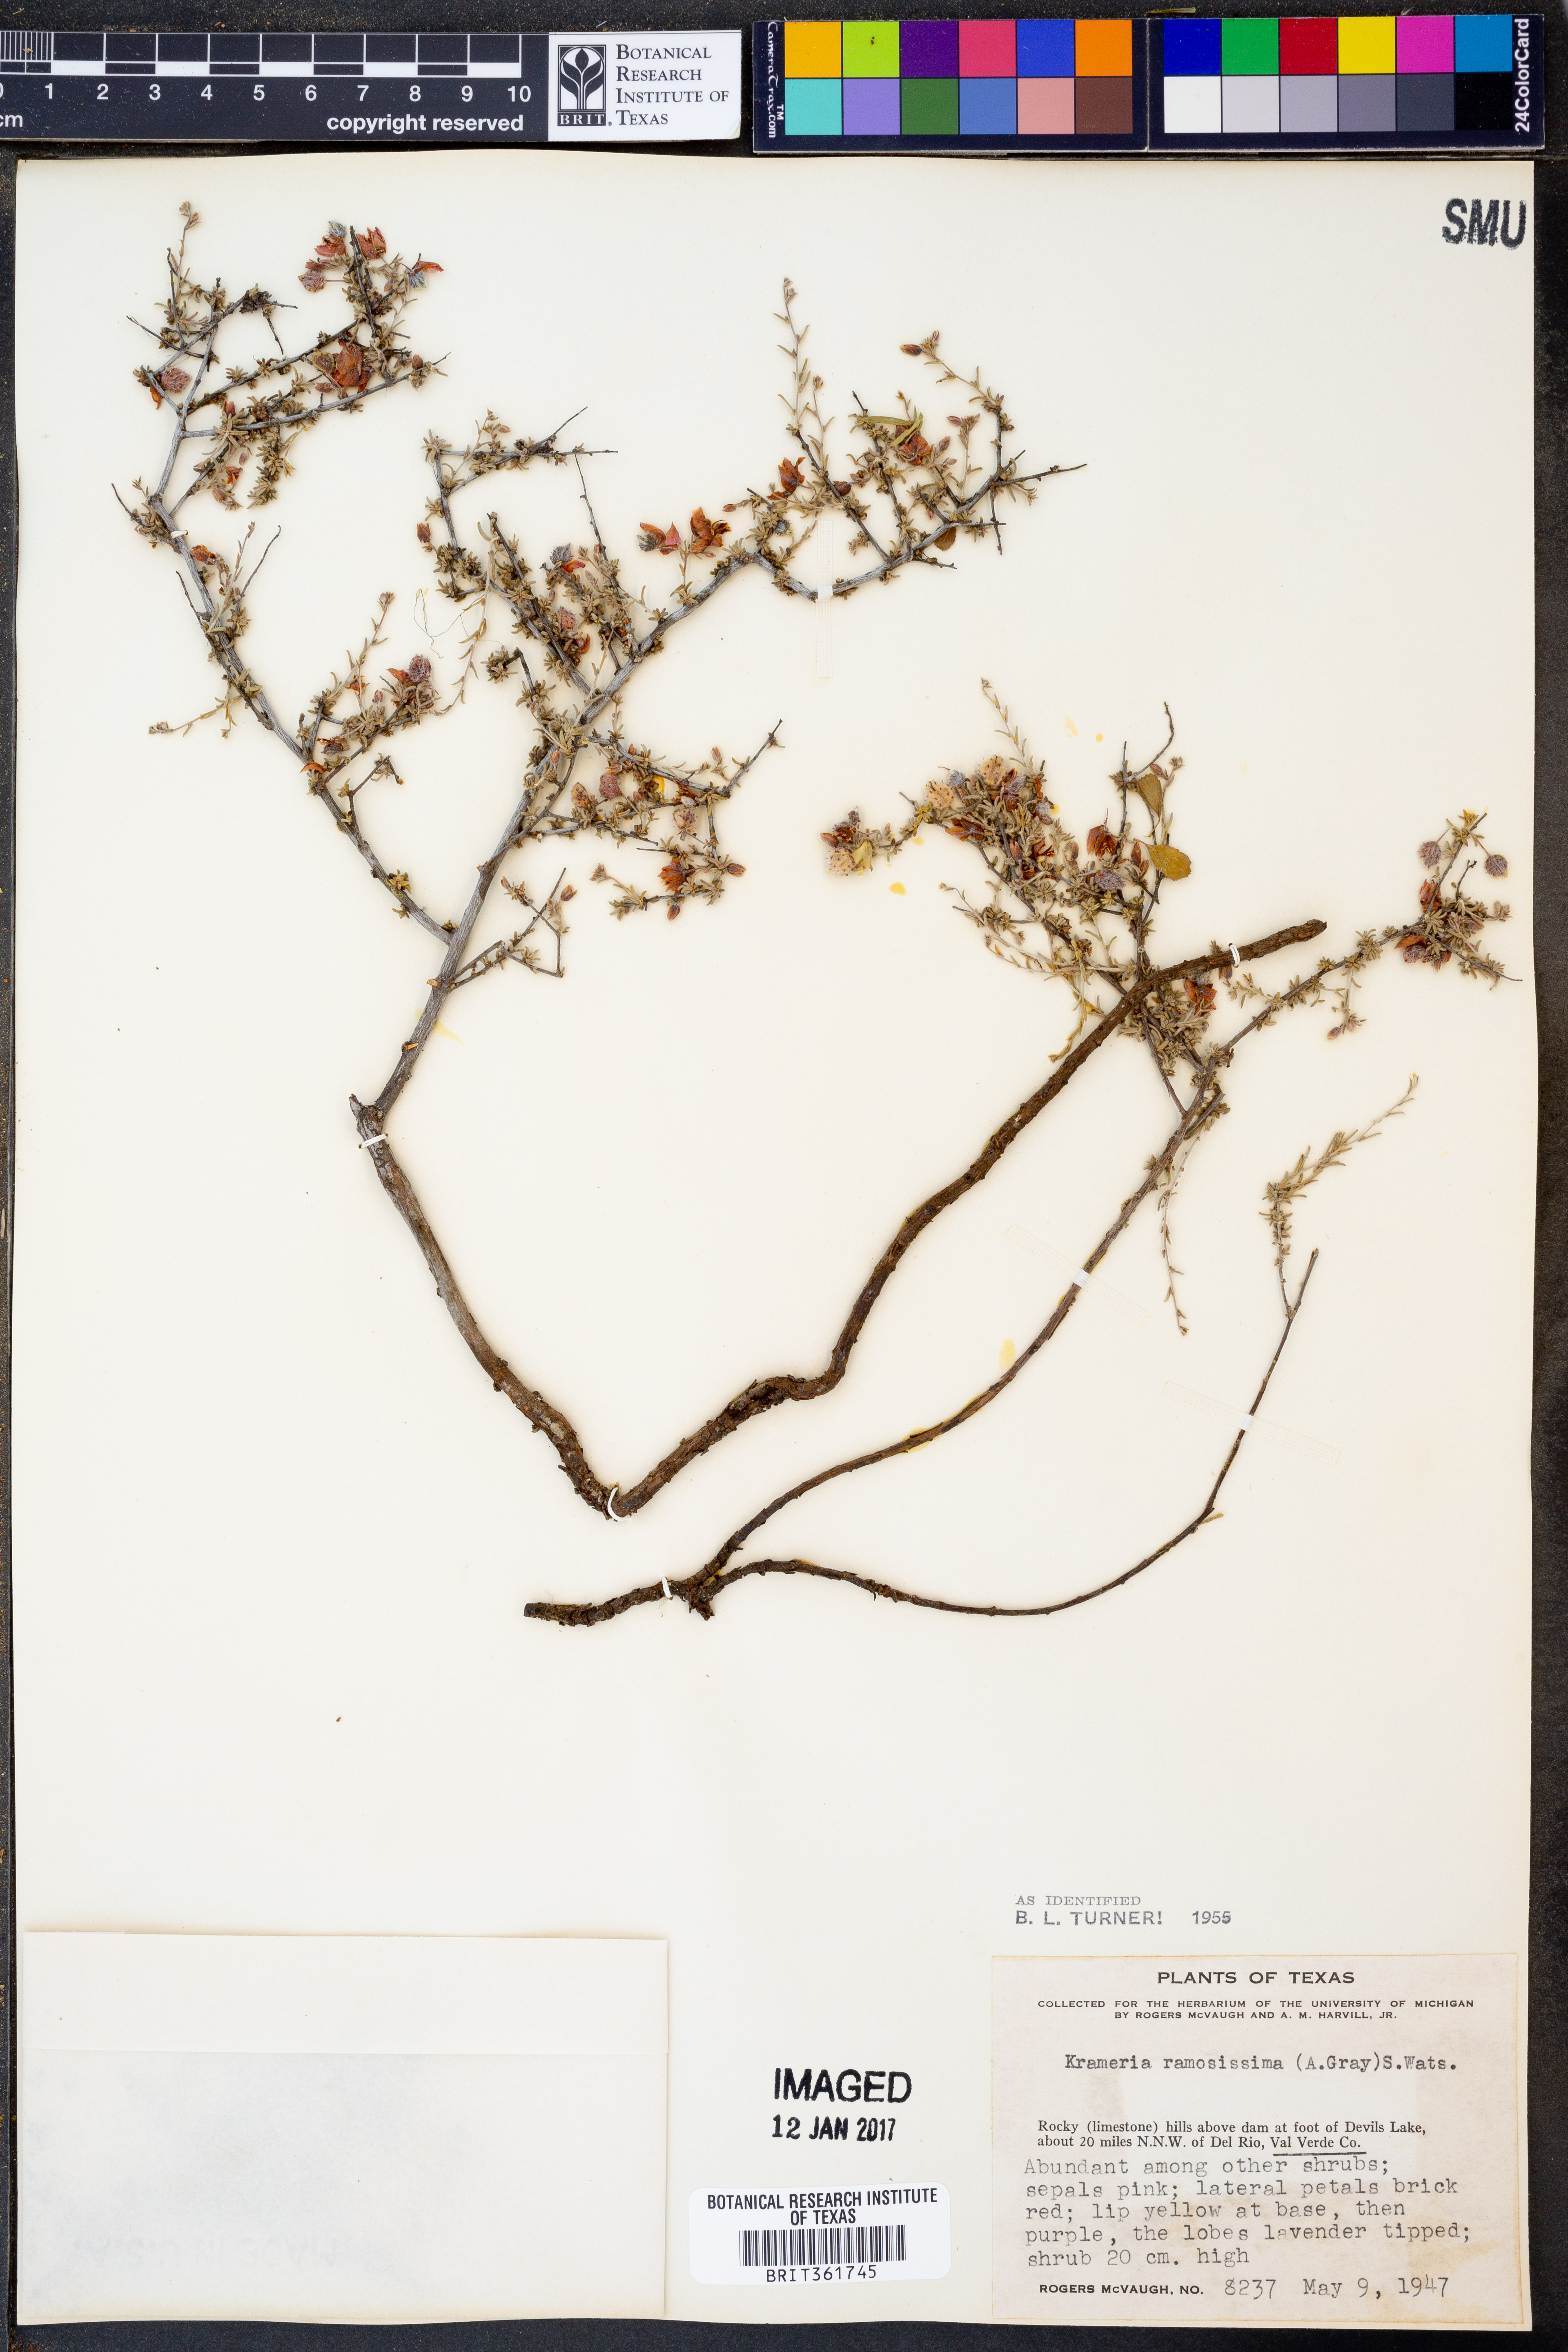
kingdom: Plantae
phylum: Tracheophyta
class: Magnoliopsida
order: Zygophyllales
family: Krameriaceae
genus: Krameria
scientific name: Krameria ramosissima
